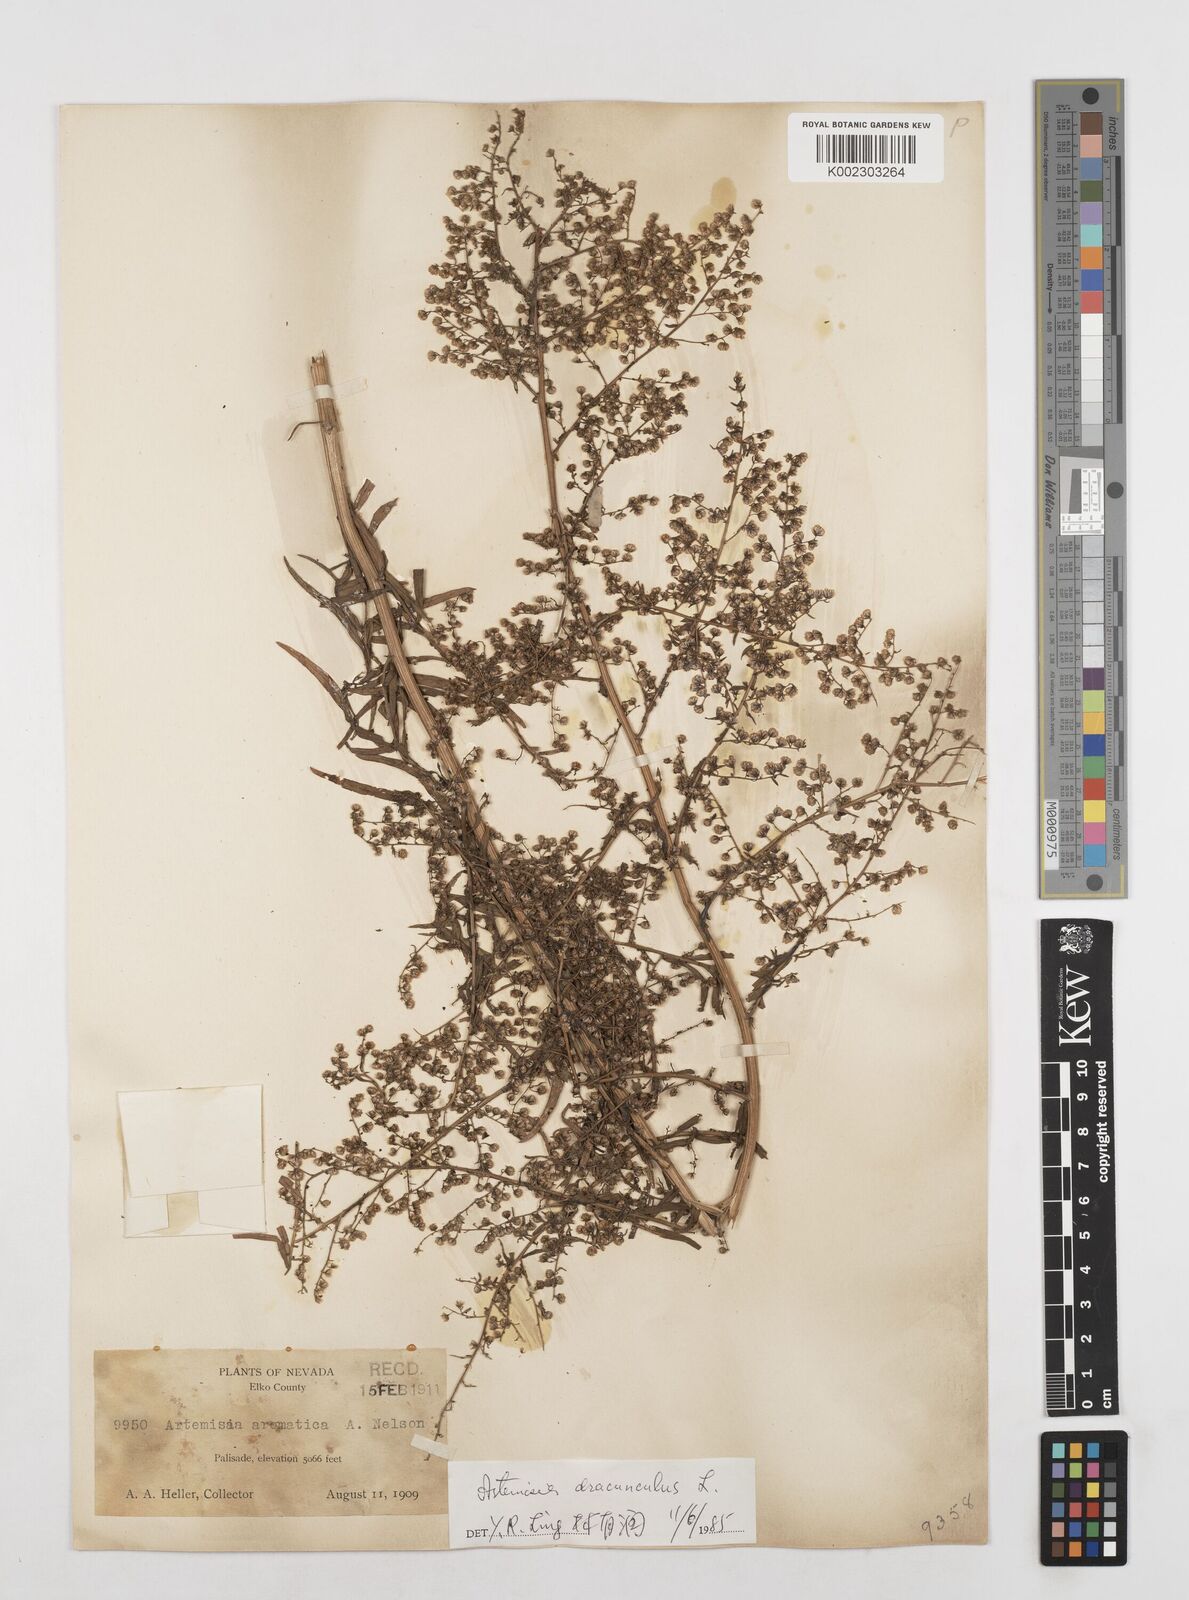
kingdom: Plantae
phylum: Tracheophyta
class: Magnoliopsida
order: Asterales
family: Asteraceae
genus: Artemisia
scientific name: Artemisia dracunculus
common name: Tarragon
